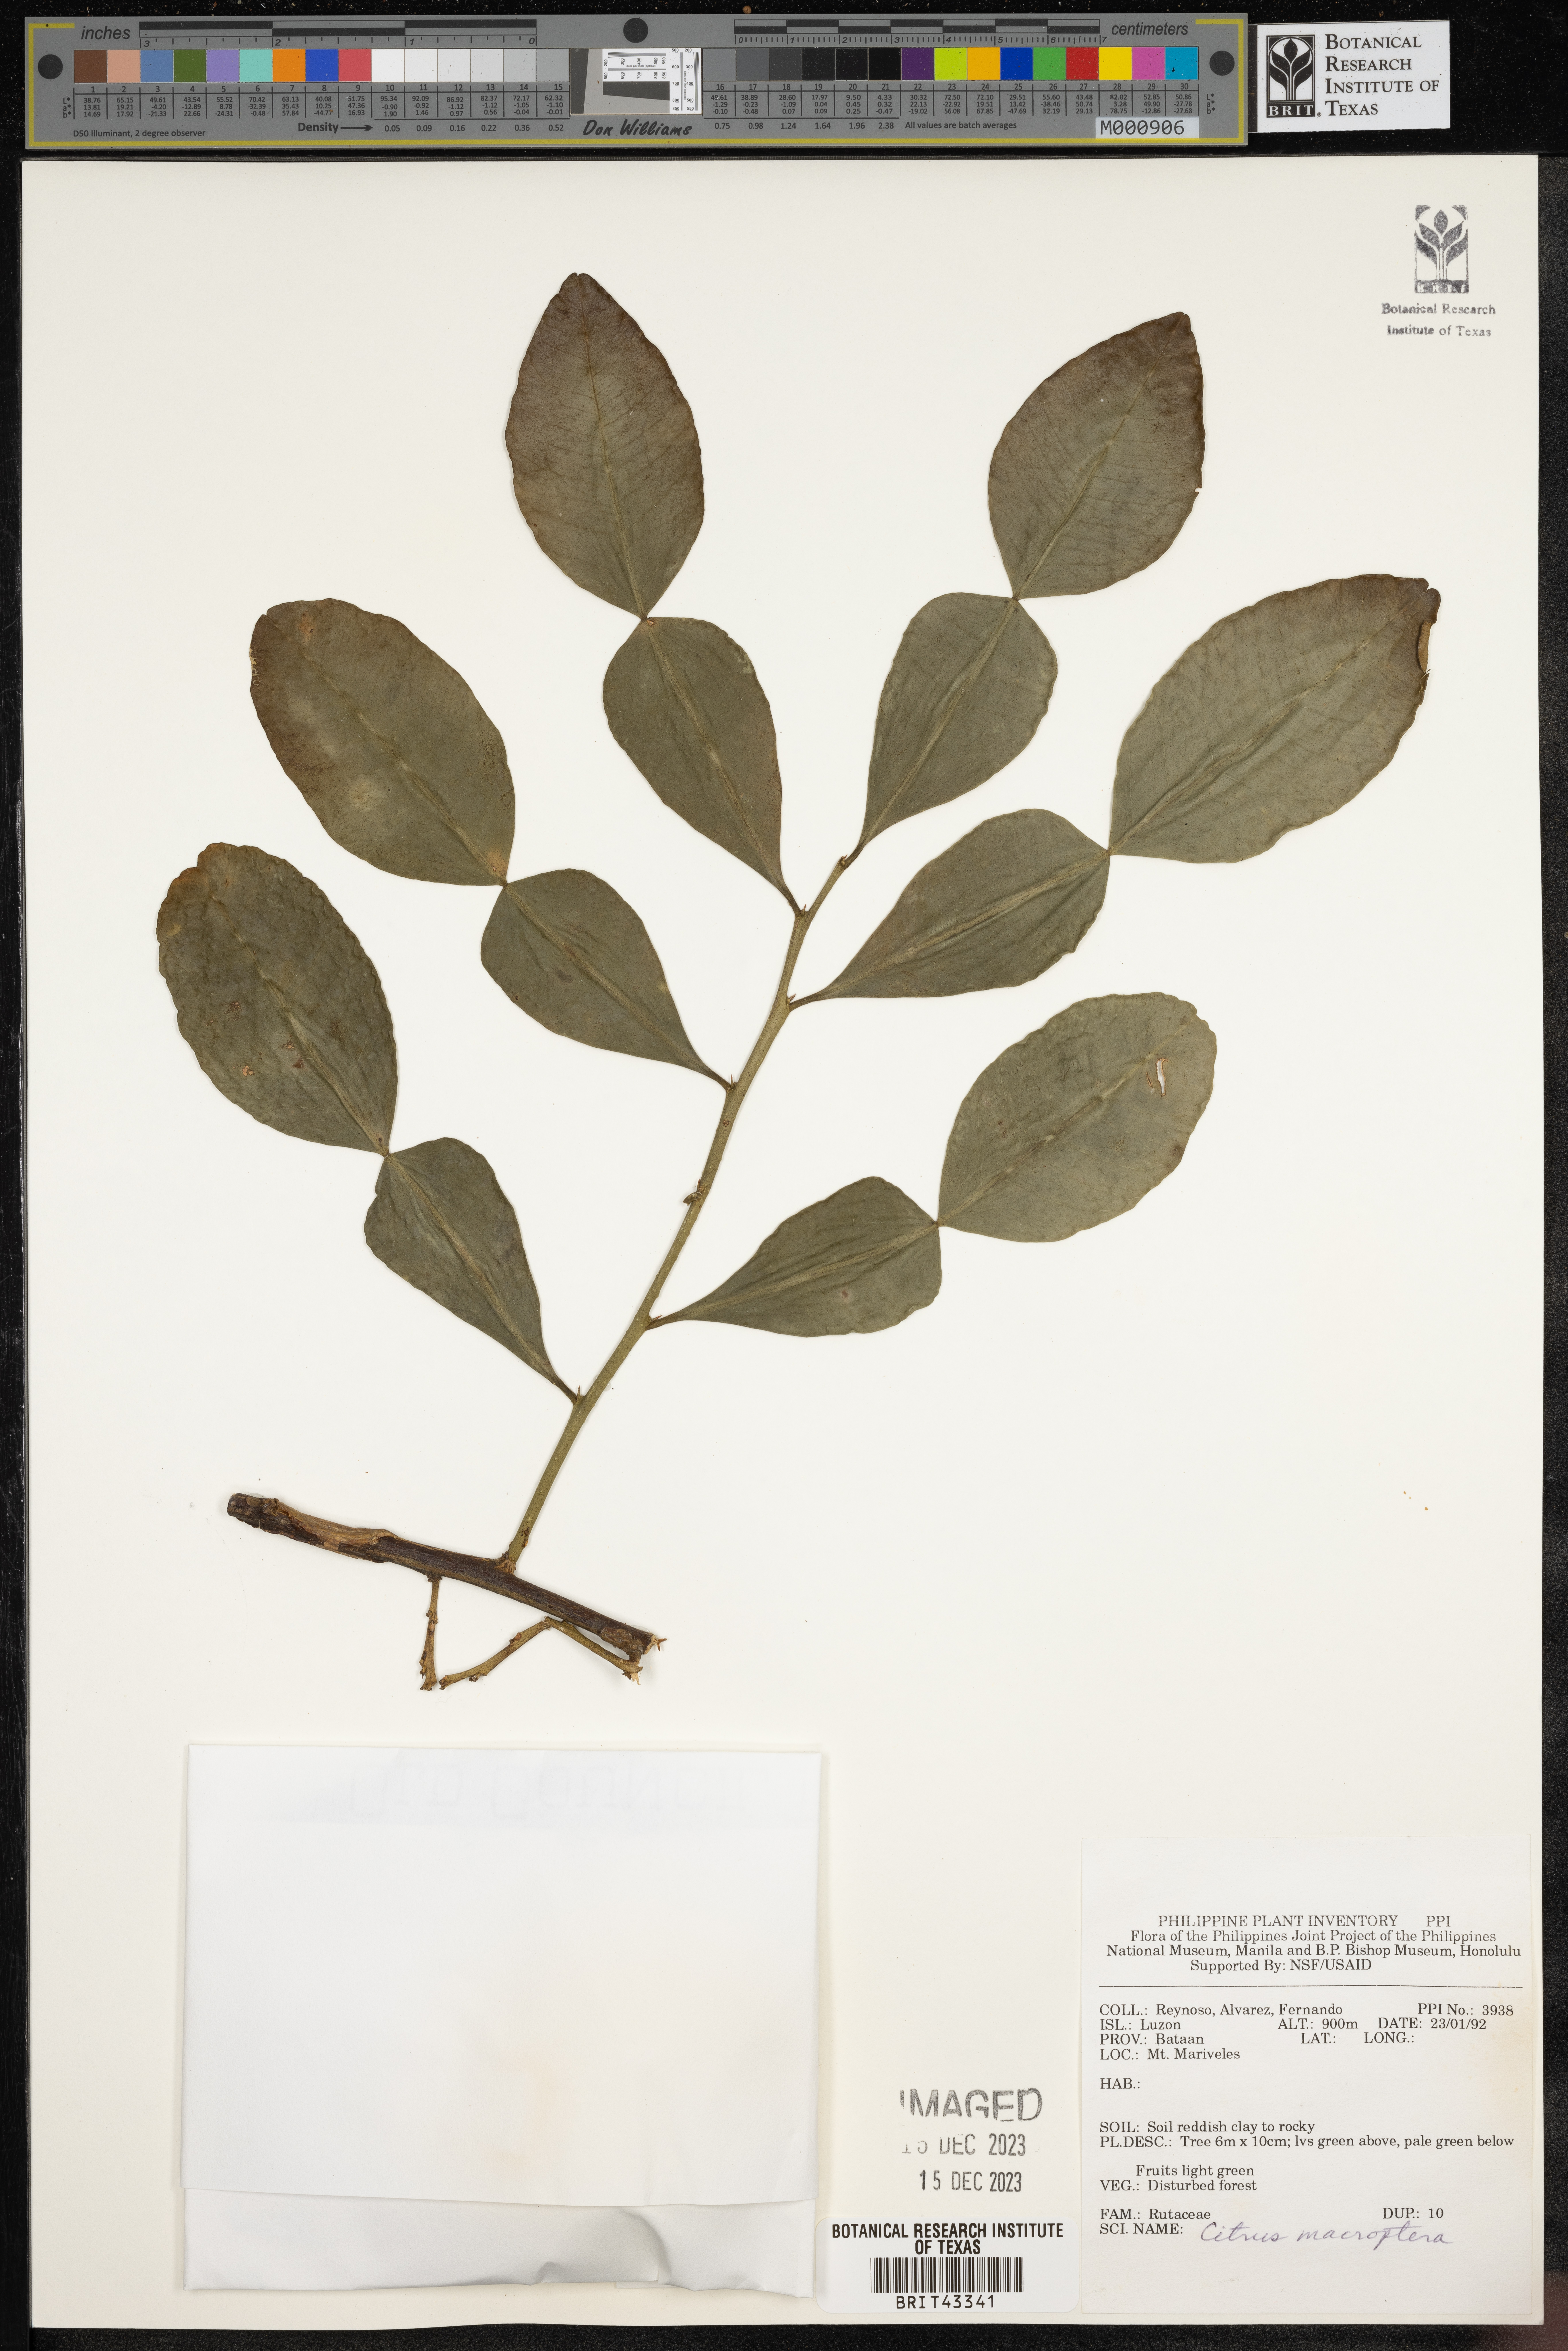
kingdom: Plantae
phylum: Tracheophyta
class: Magnoliopsida
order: Sapindales
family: Rutaceae
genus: Citrus
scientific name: Citrus hystrix
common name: Kaffir-lime
